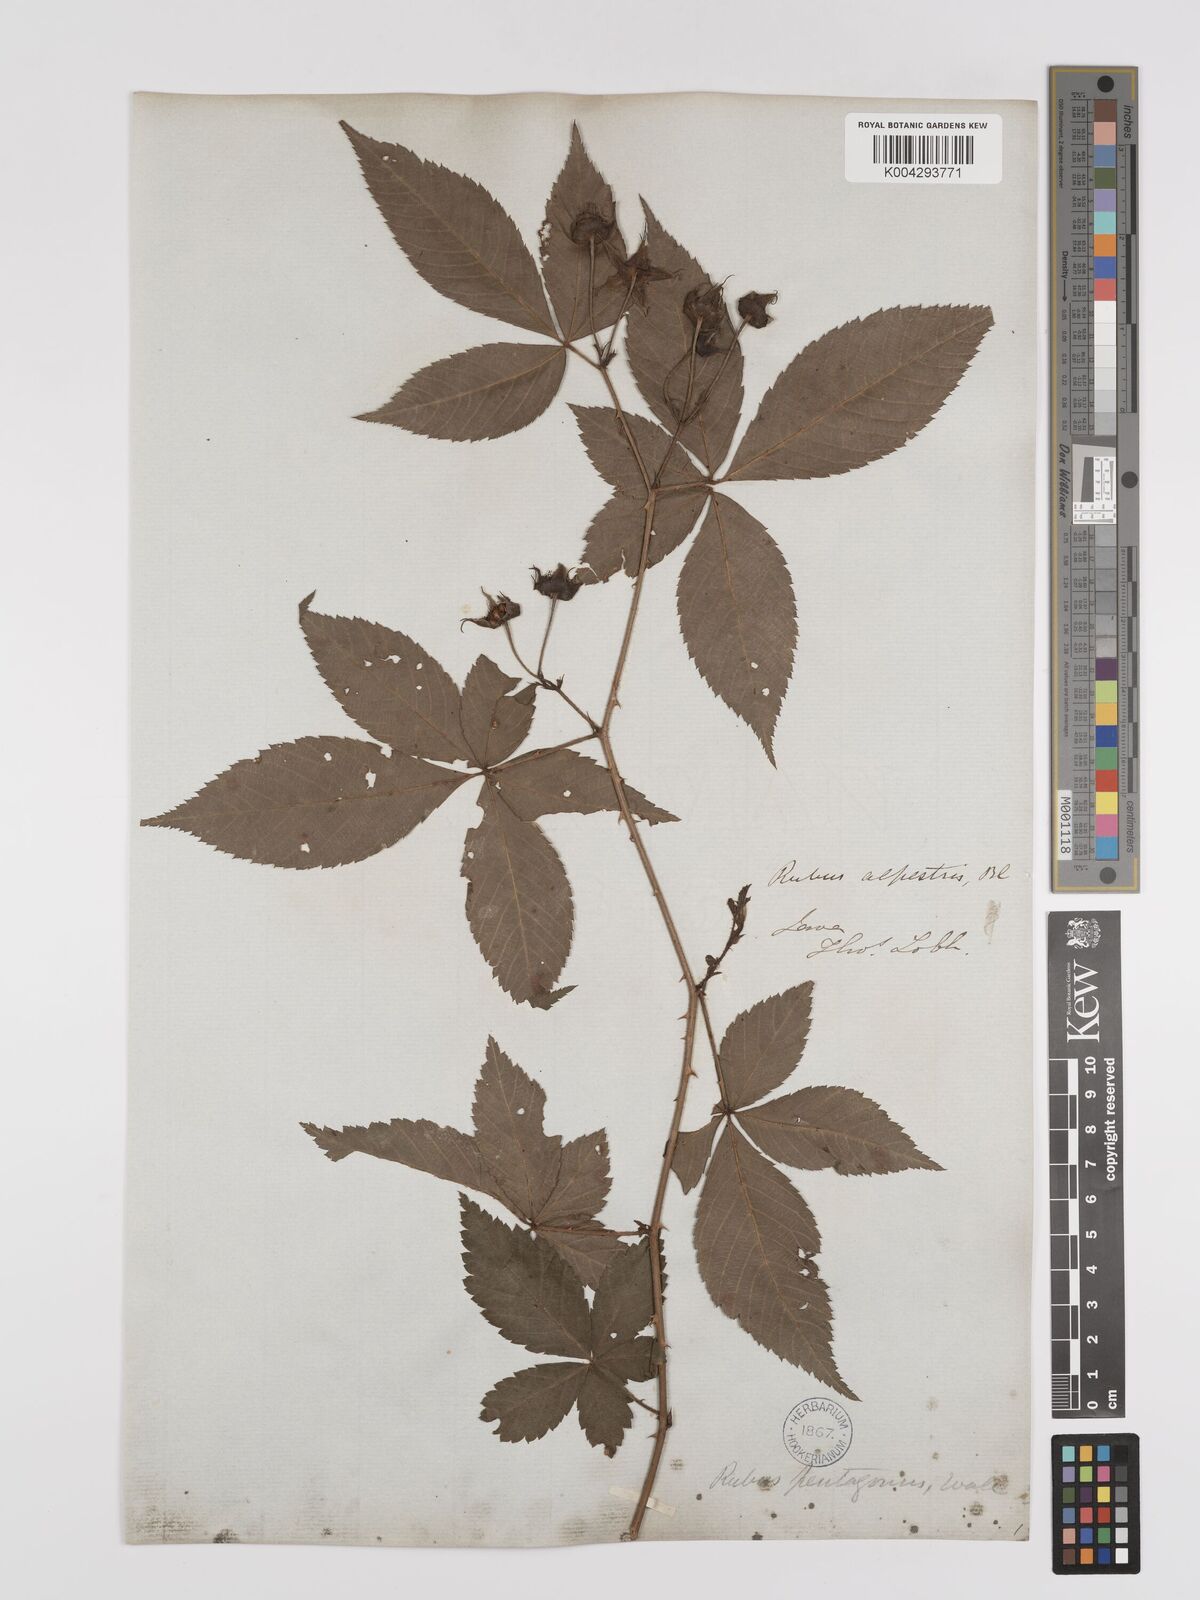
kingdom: Plantae
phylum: Tracheophyta
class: Magnoliopsida
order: Rosales
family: Rosaceae
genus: Rubus
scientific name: Rubus alpestris
